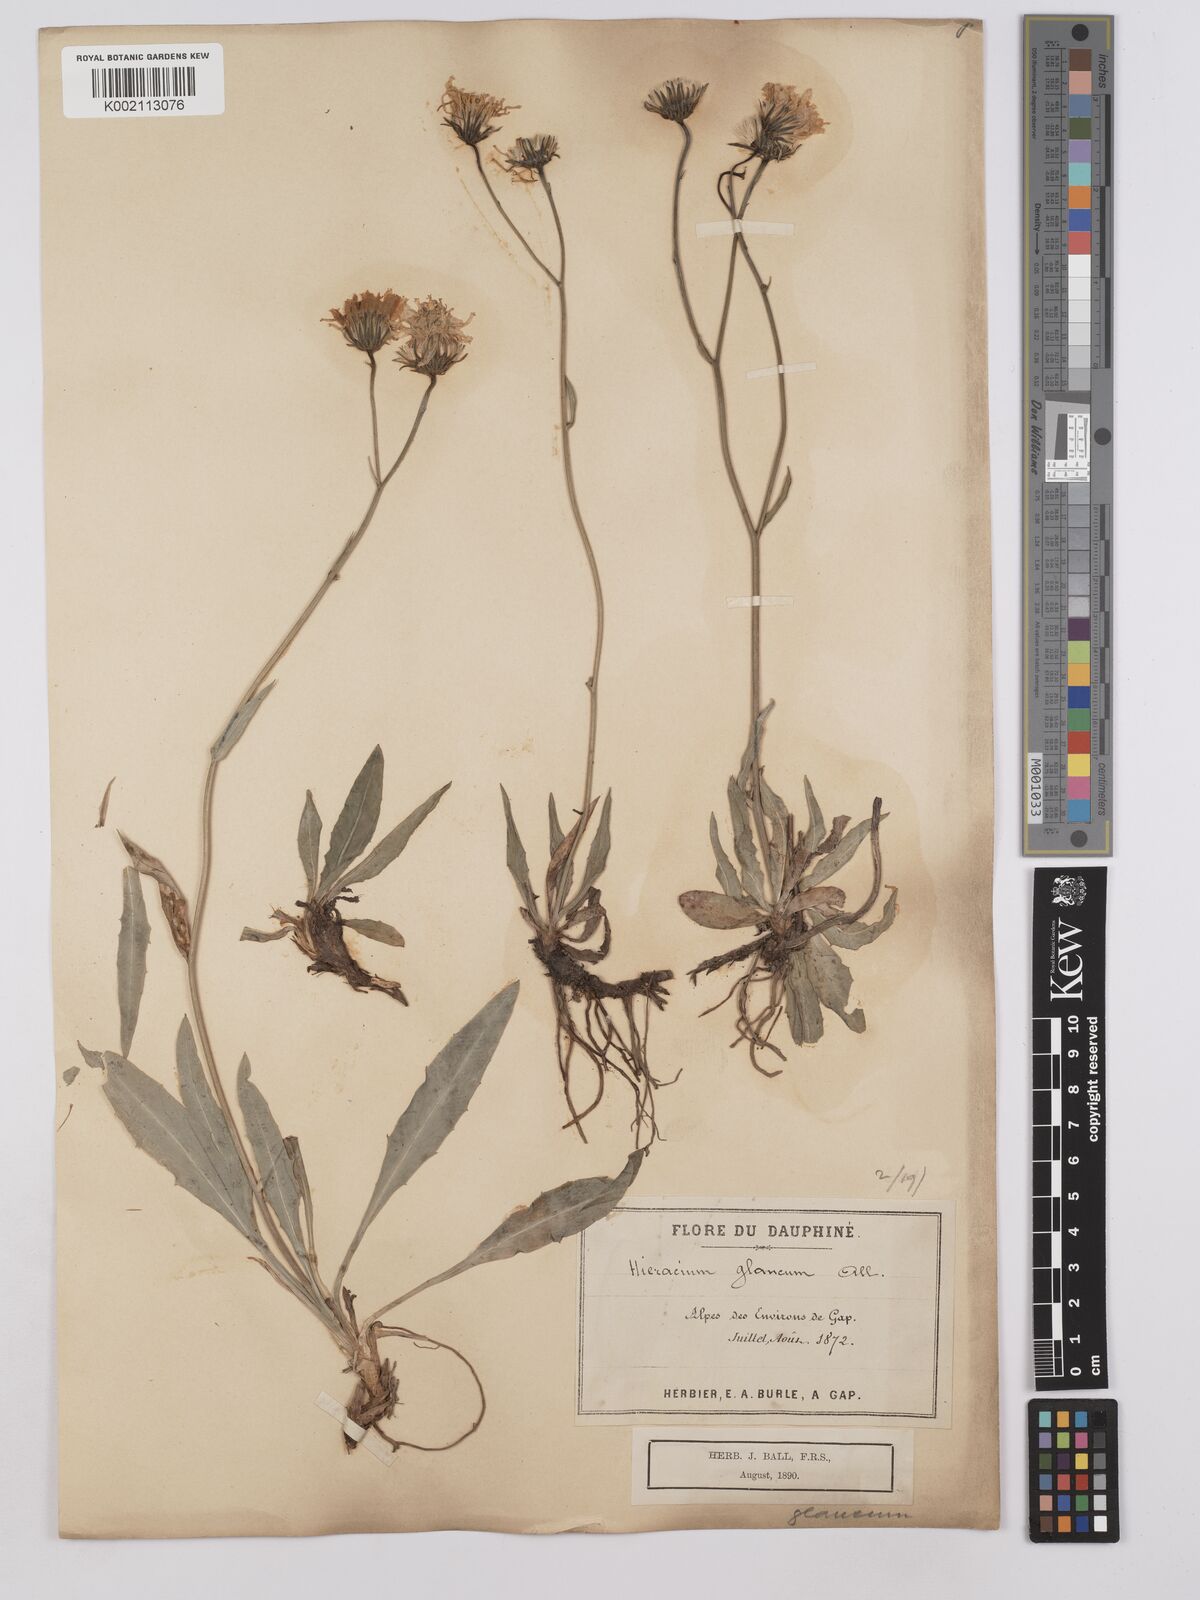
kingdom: Plantae
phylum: Tracheophyta
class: Magnoliopsida
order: Asterales
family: Asteraceae
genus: Hieracium
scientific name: Hieracium bupleuroides
